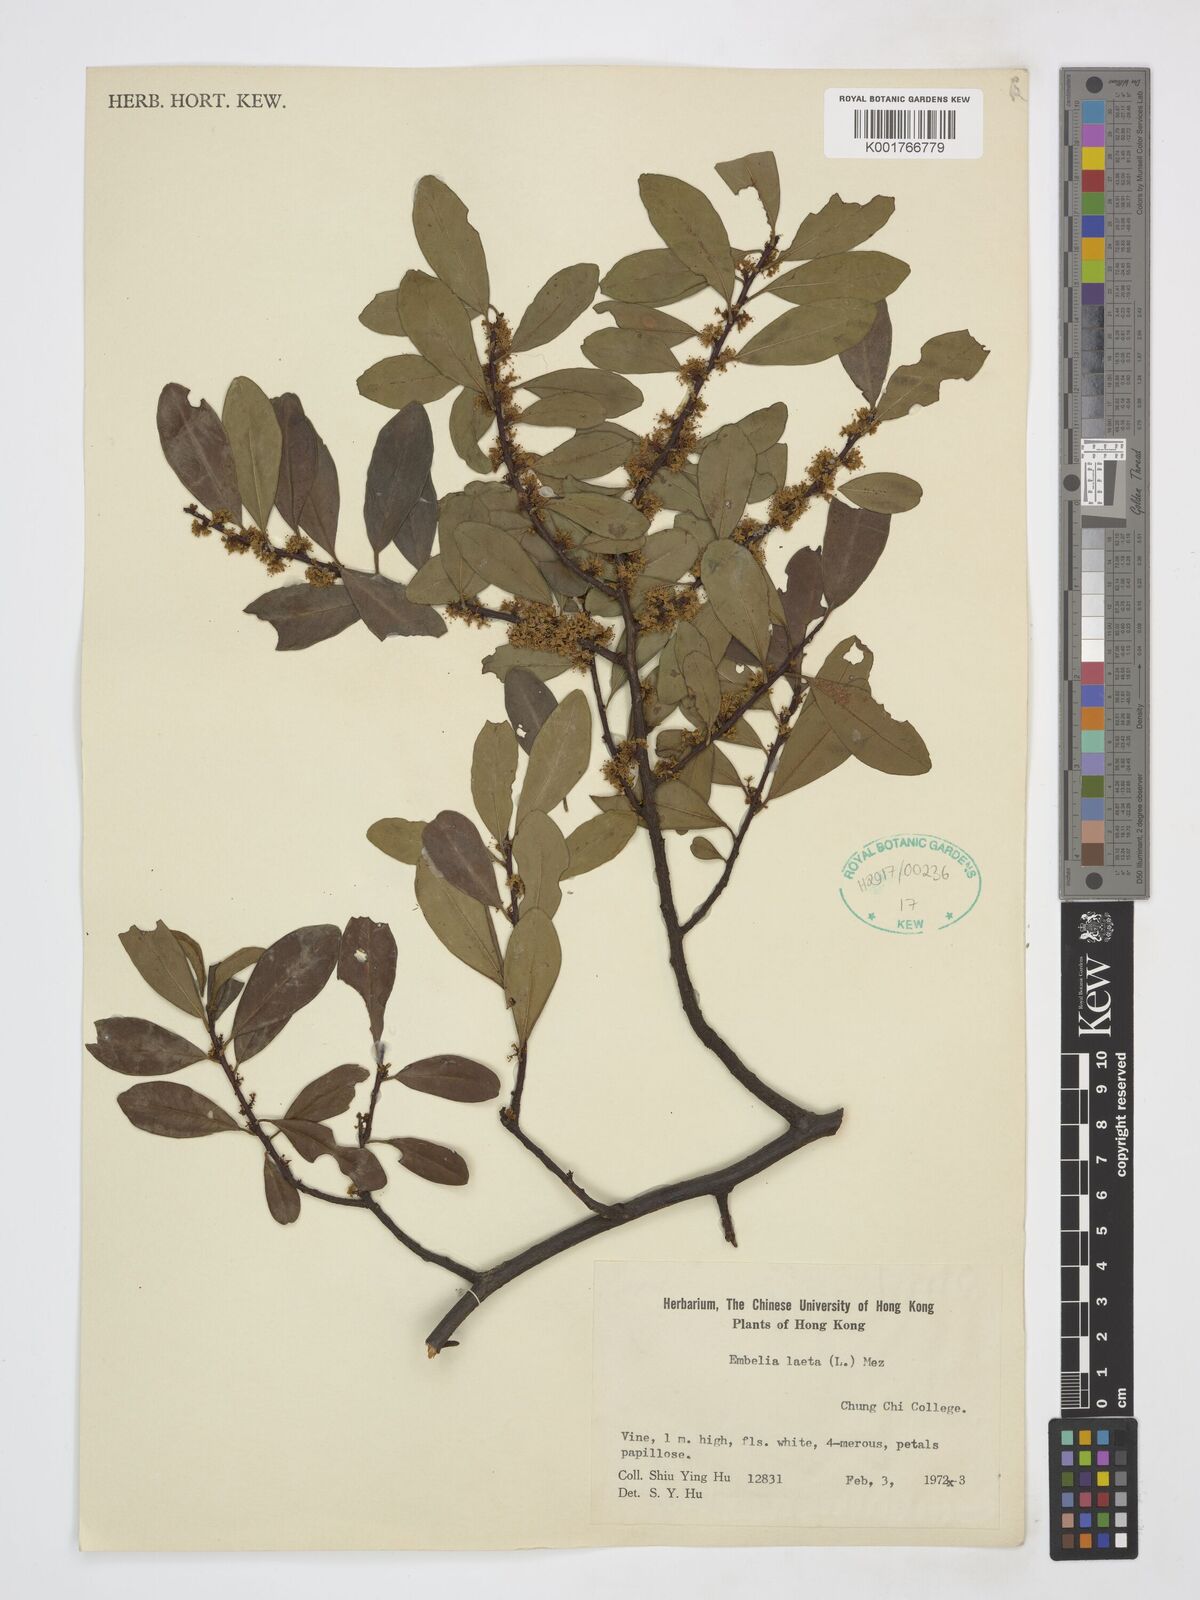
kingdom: Plantae
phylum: Tracheophyta
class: Magnoliopsida
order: Ericales
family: Primulaceae
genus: Embelia
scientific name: Embelia laeta
